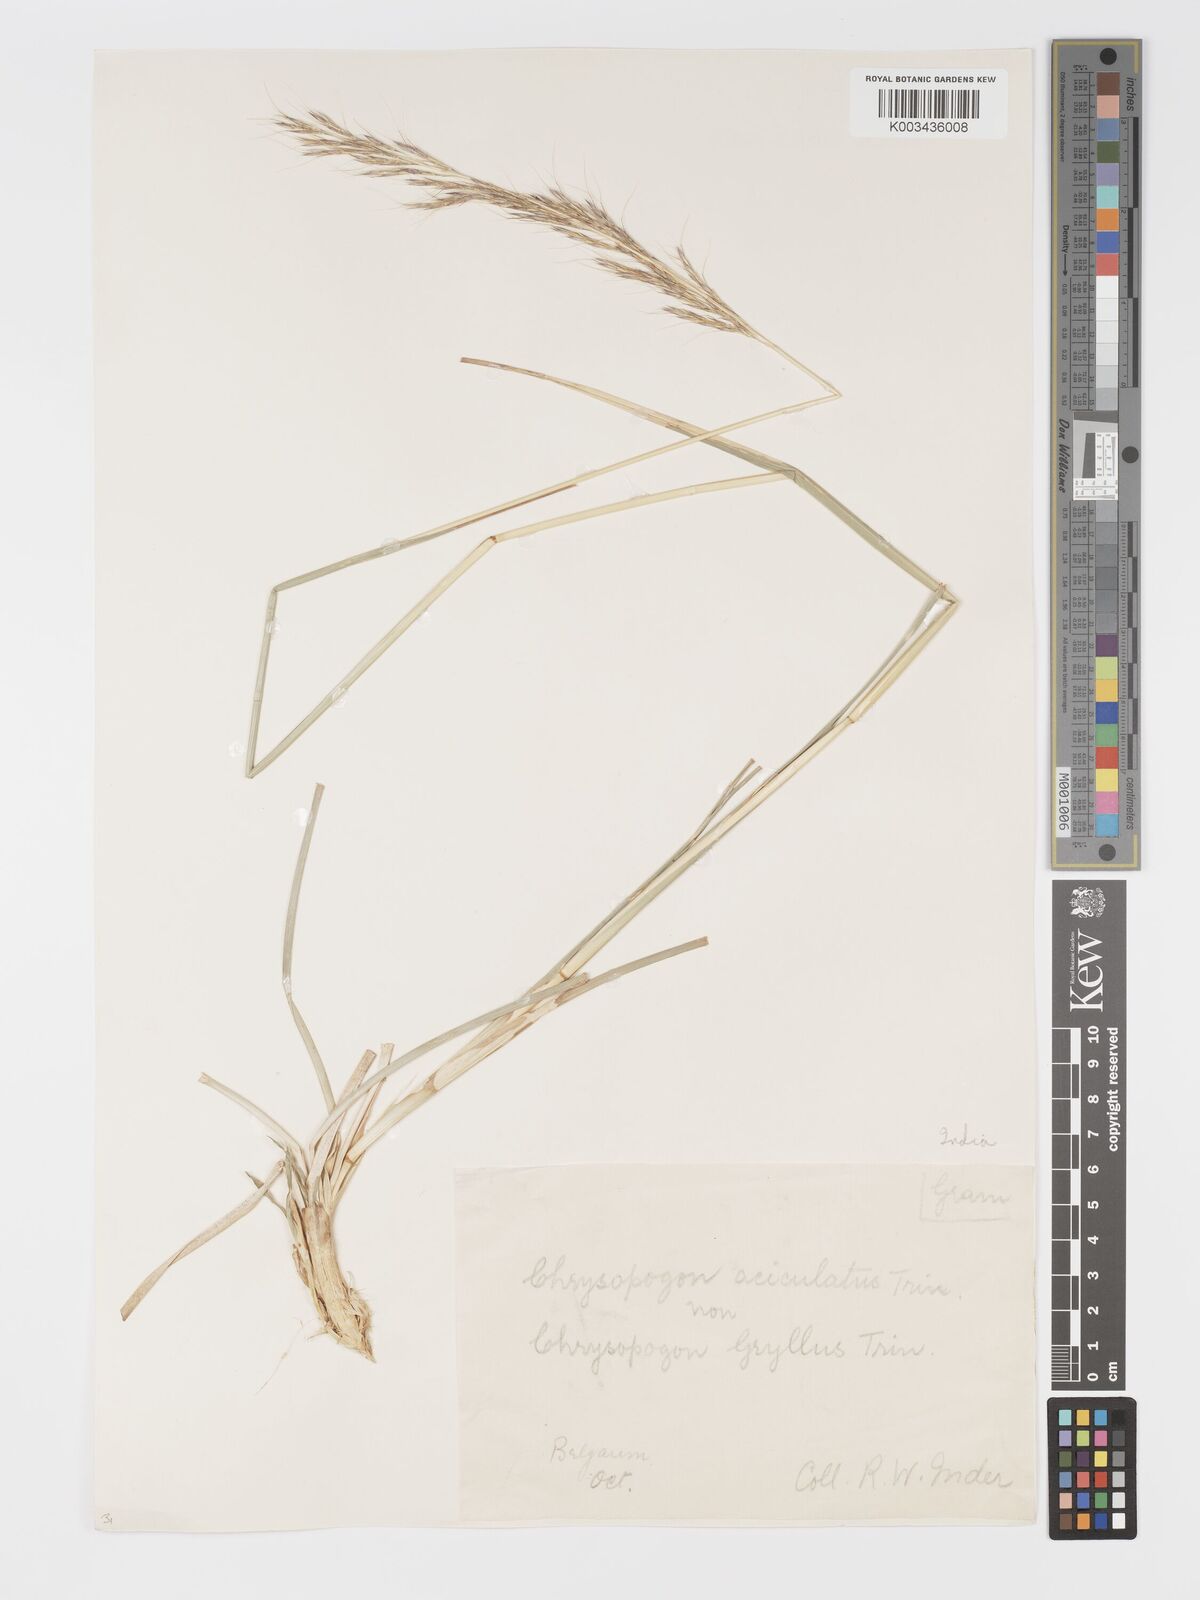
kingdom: Plantae
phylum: Tracheophyta
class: Liliopsida
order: Poales
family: Poaceae
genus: Chrysopogon
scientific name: Chrysopogon gryllus
